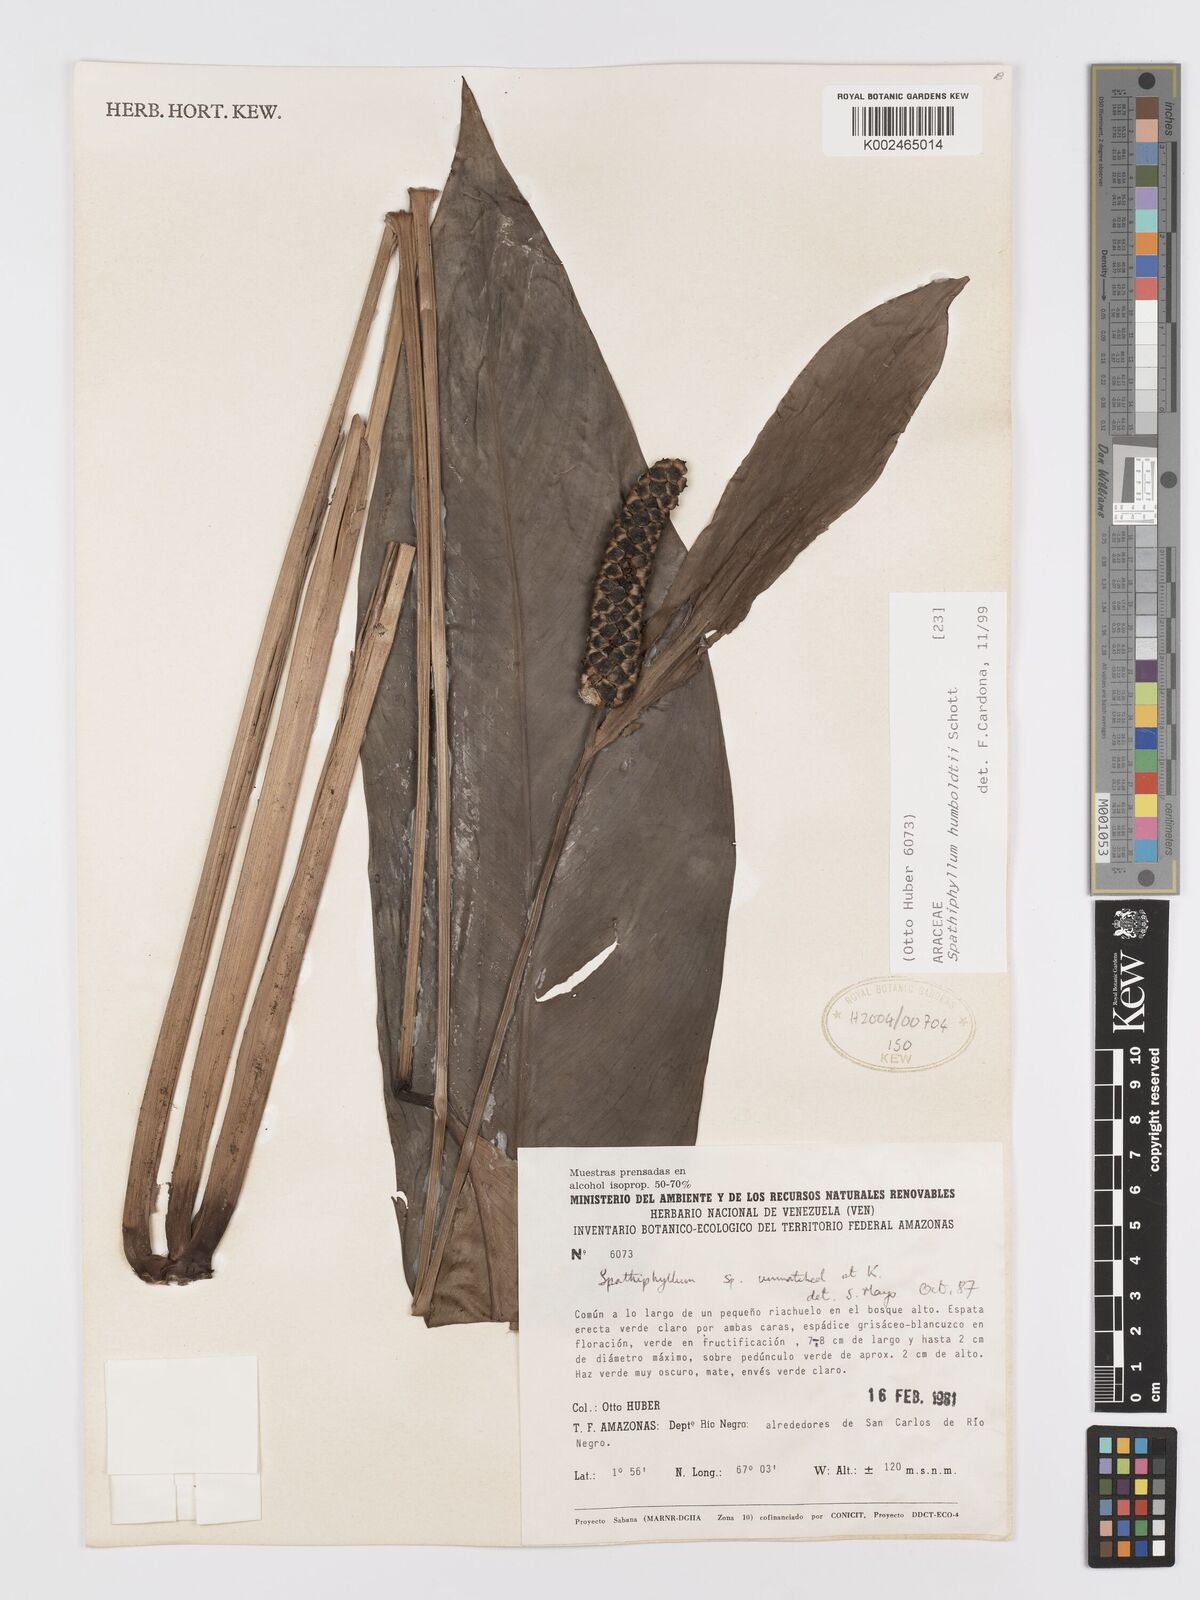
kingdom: Plantae
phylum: Tracheophyta
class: Liliopsida
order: Alismatales
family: Araceae
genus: Spathiphyllum
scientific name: Spathiphyllum humboldtii
